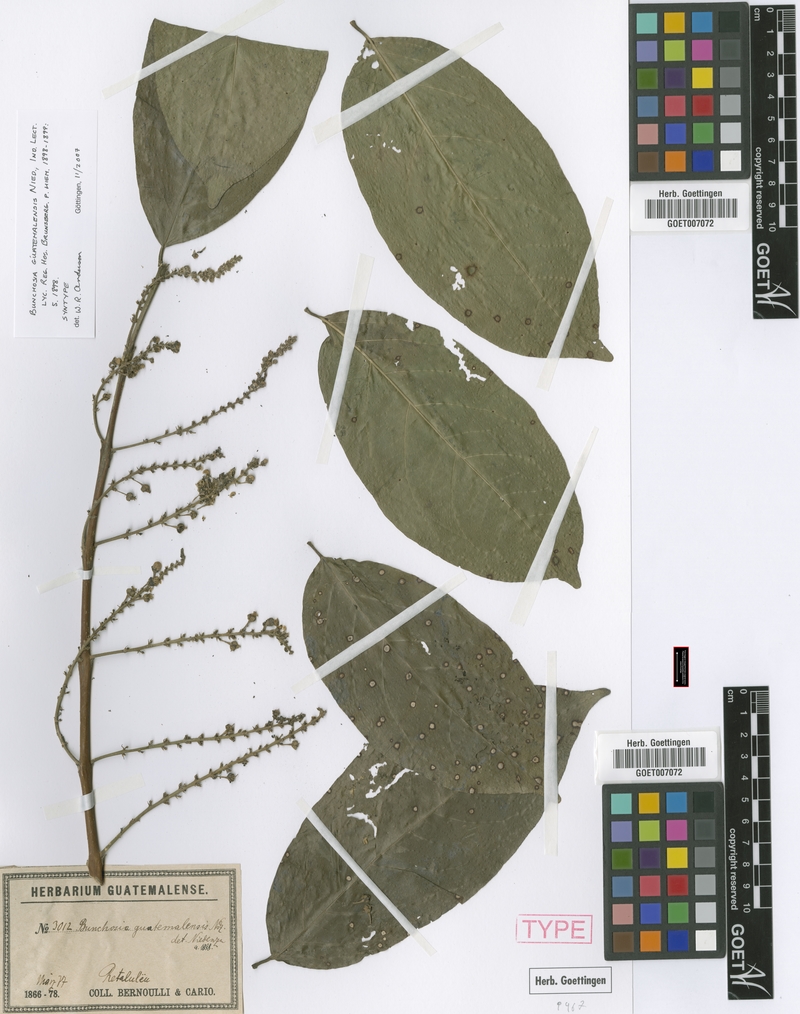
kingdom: Plantae
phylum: Tracheophyta
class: Magnoliopsida
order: Malpighiales
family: Malpighiaceae
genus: Bunchosia
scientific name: Bunchosia guatemalensis
